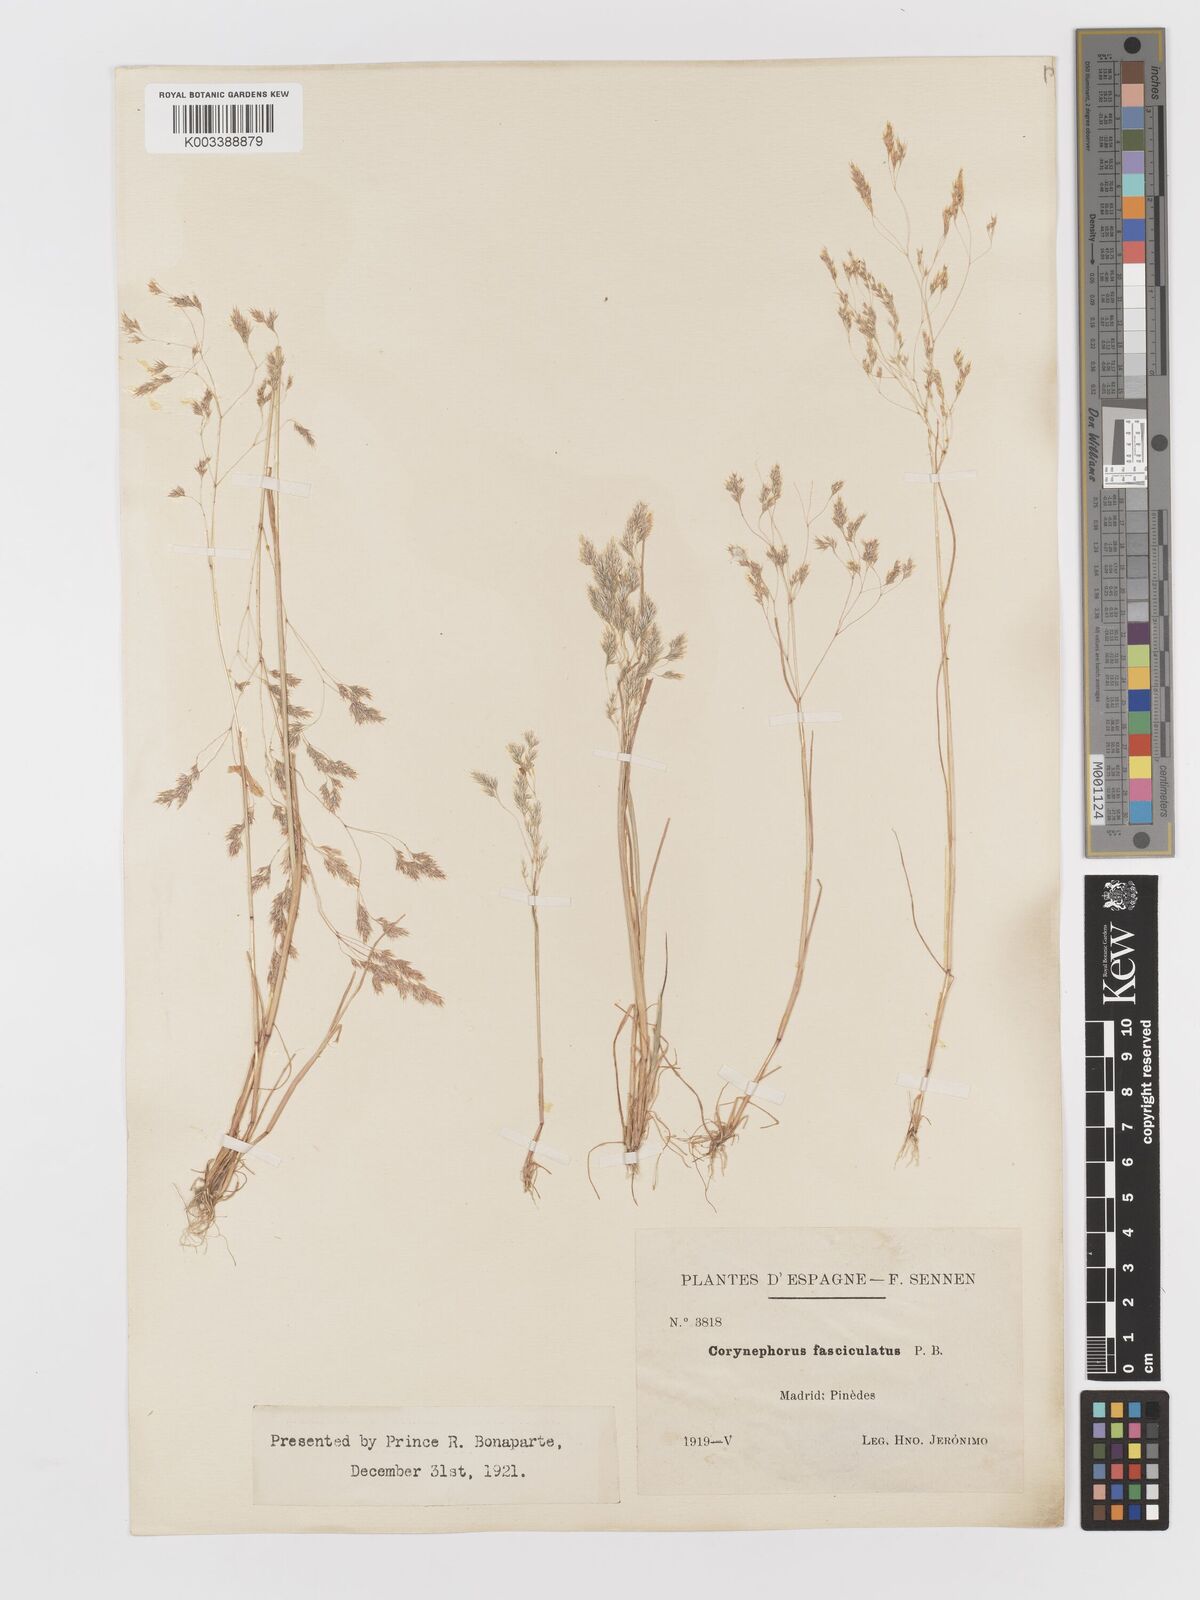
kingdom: Plantae
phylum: Tracheophyta
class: Liliopsida
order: Poales
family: Poaceae
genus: Corynephorus
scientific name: Corynephorus fasciculatus
